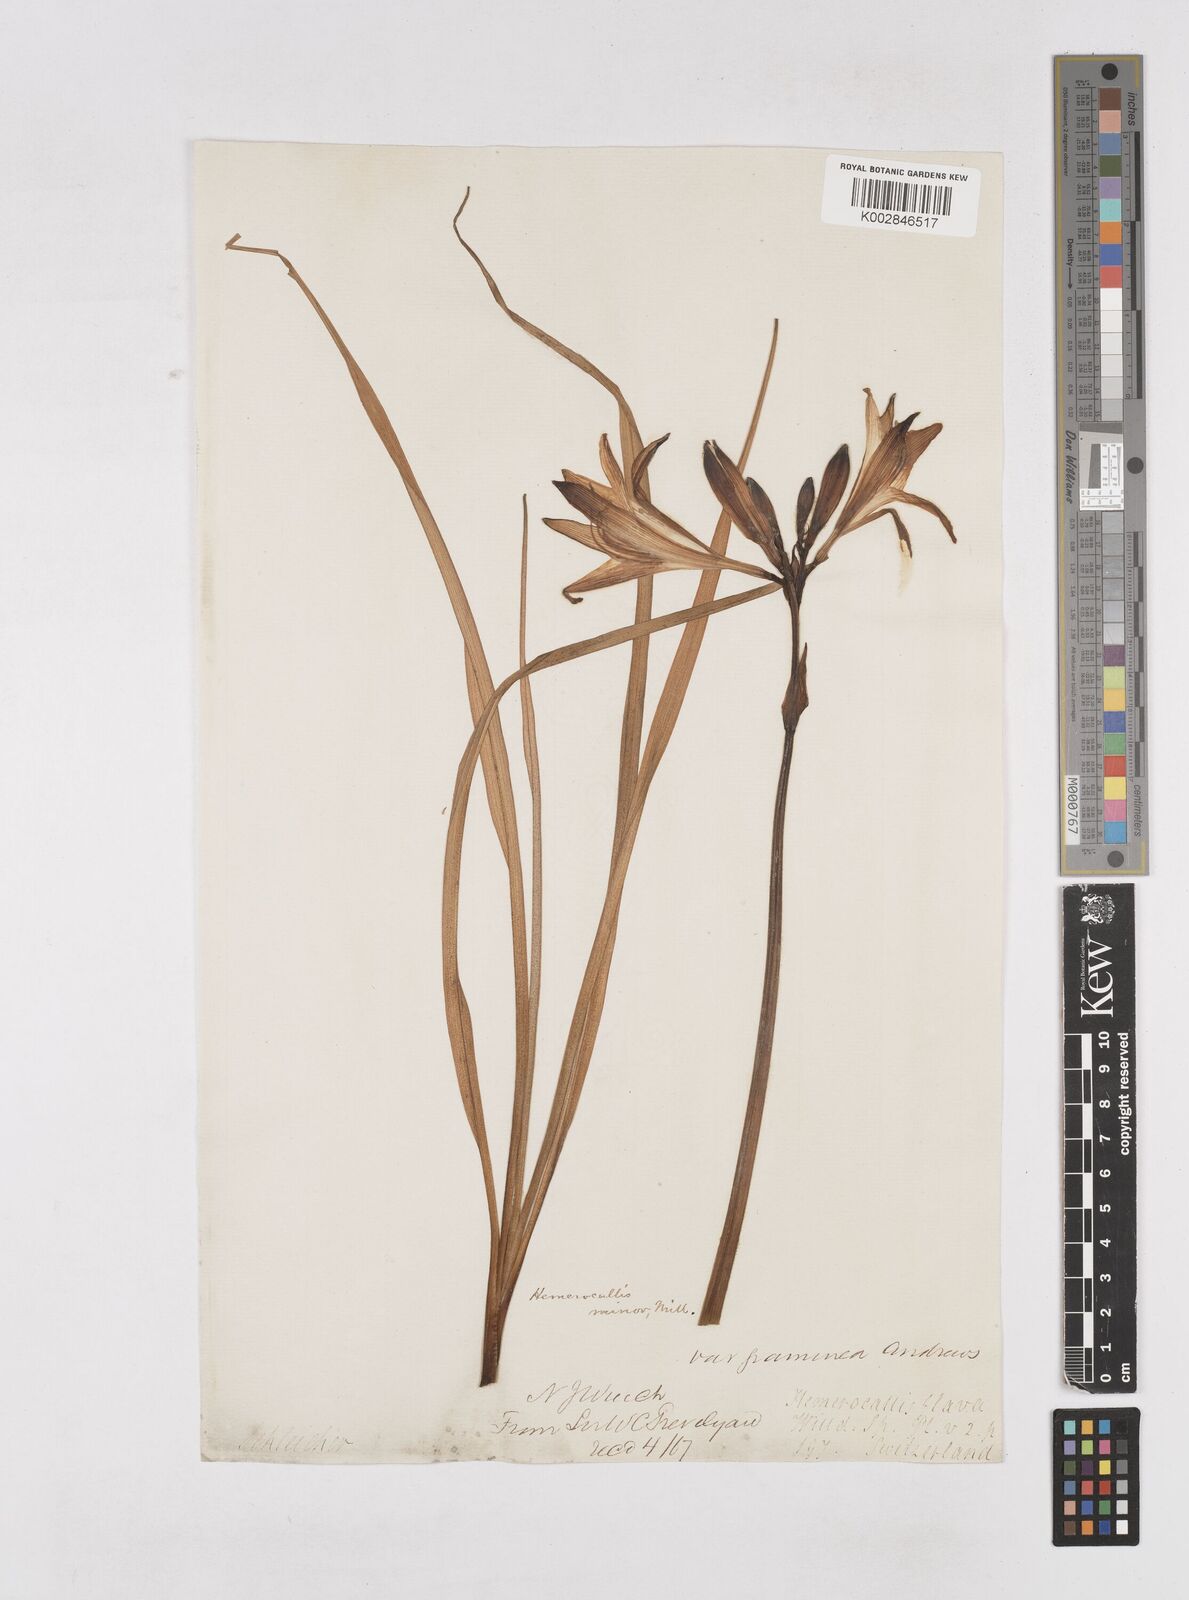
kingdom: Plantae
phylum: Tracheophyta
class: Liliopsida
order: Asparagales
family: Asphodelaceae
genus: Hemerocallis
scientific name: Hemerocallis minor
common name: Small daylily
